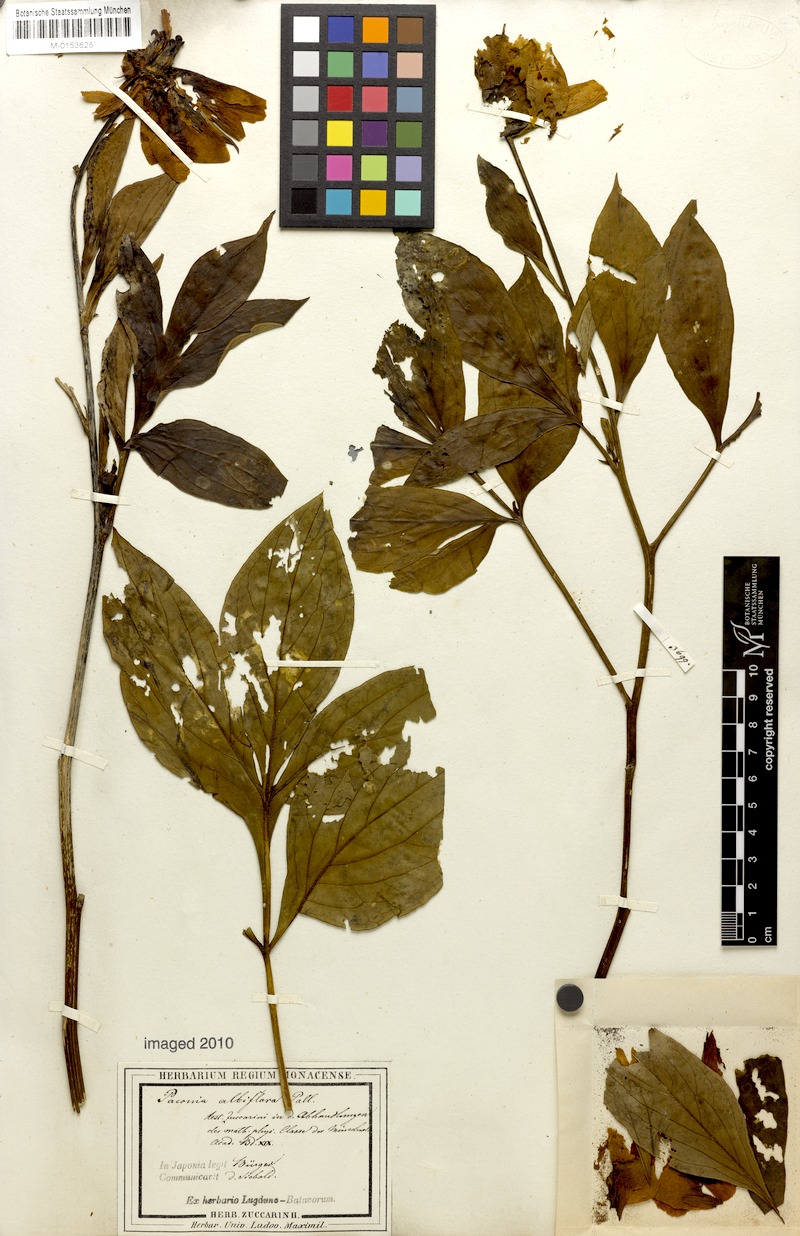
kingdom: Plantae
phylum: Tracheophyta
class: Magnoliopsida
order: Saxifragales
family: Paeoniaceae
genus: Paeonia
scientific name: Paeonia lactiflora
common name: Chinese peony
